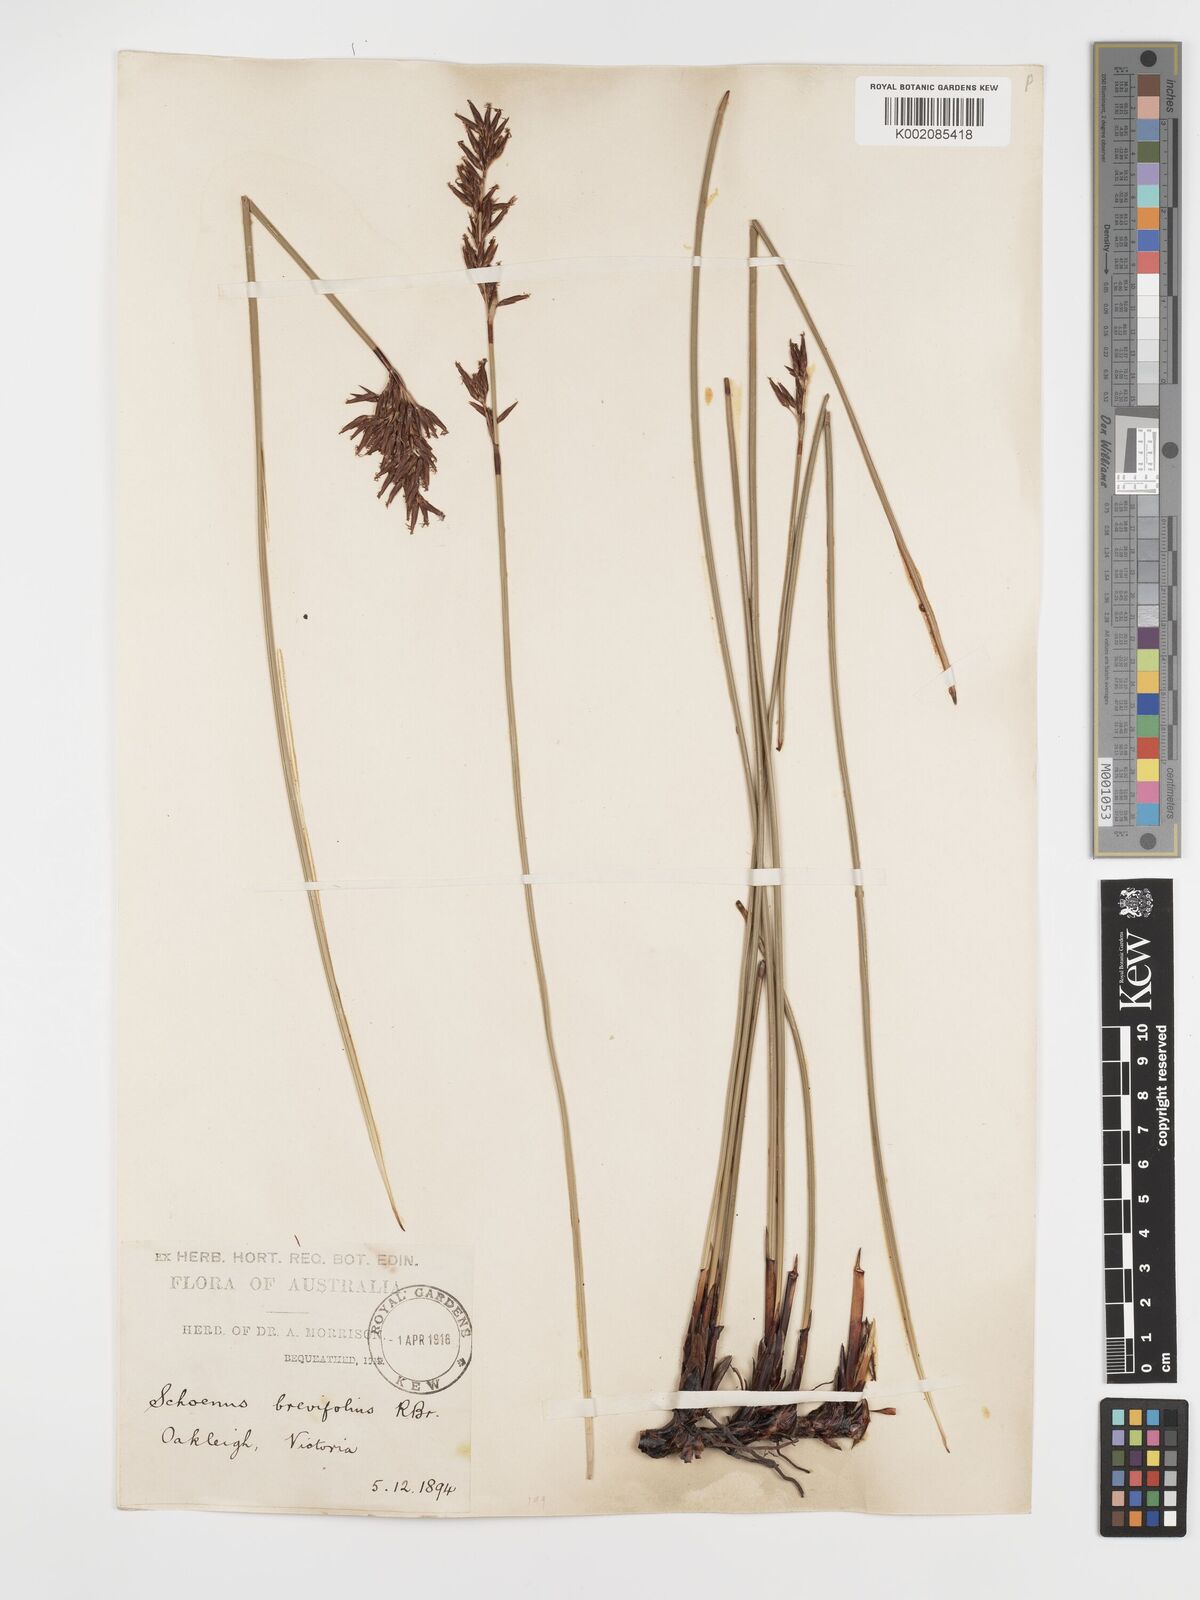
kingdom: Plantae
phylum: Tracheophyta
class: Liliopsida
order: Poales
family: Cyperaceae
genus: Schoenus
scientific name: Schoenus brevifolius
